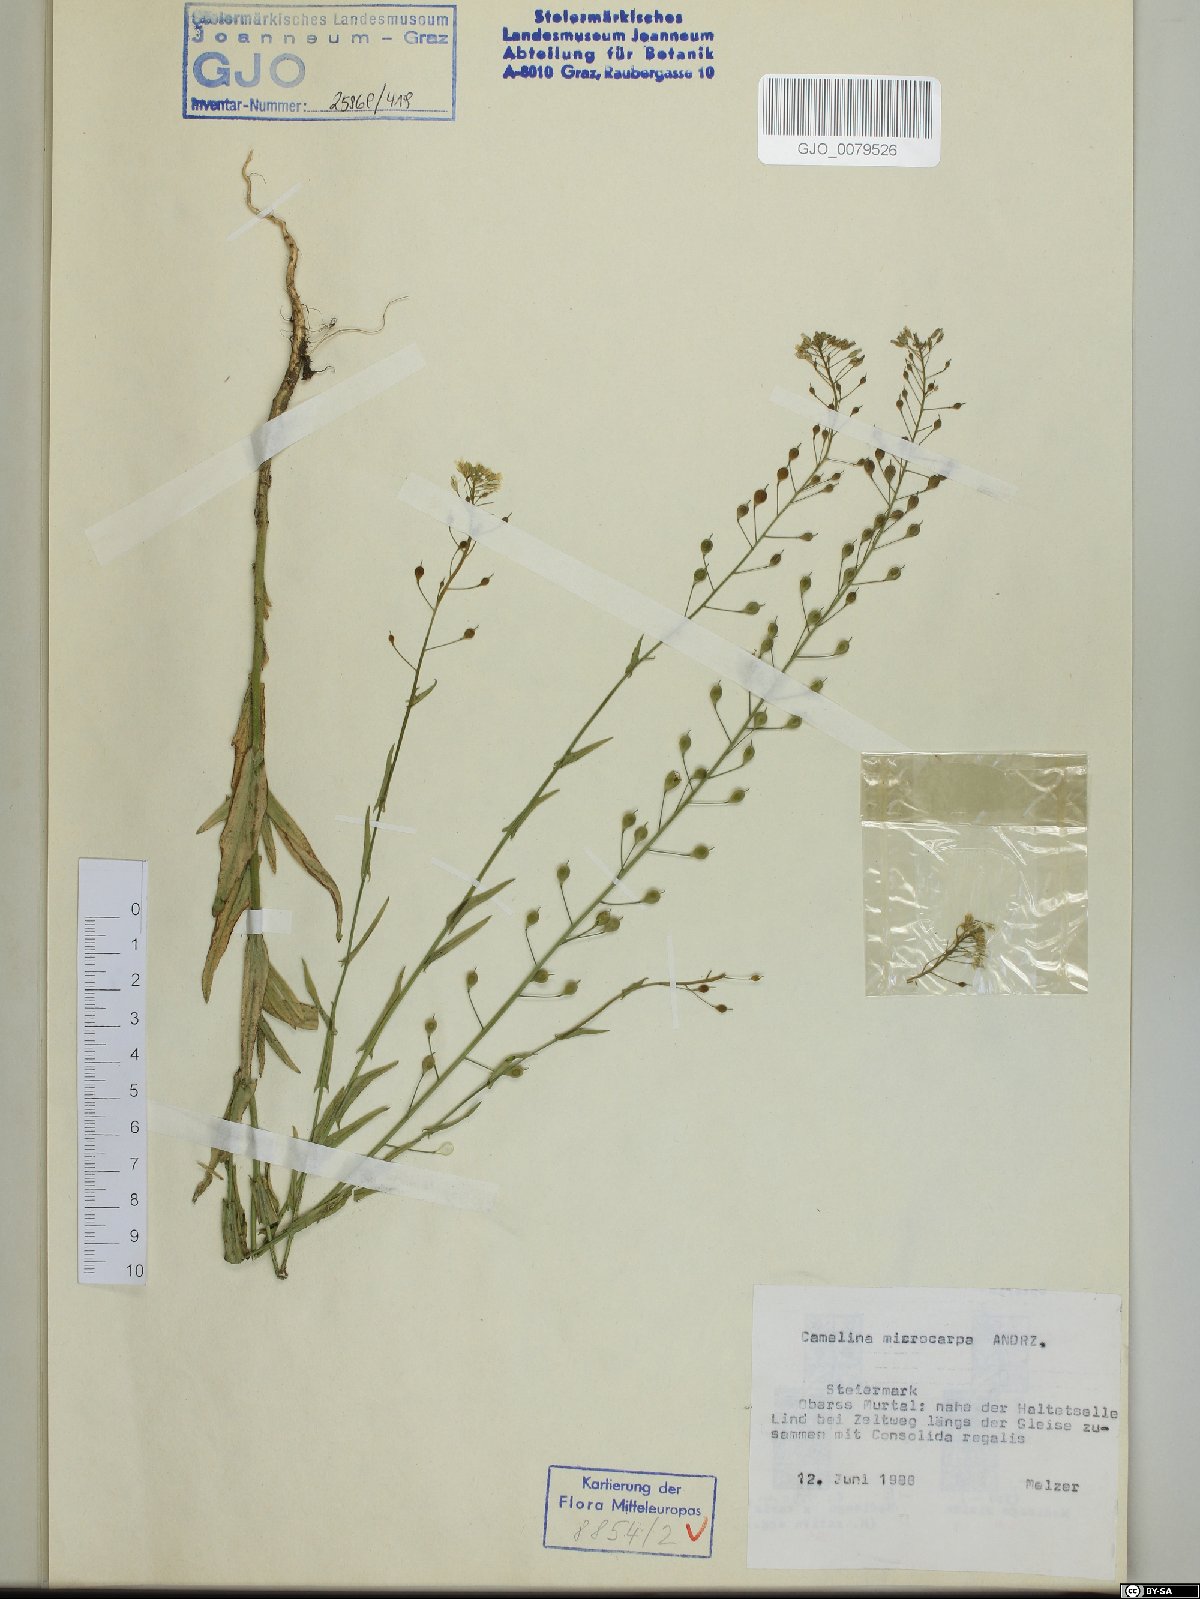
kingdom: Plantae
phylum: Tracheophyta
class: Magnoliopsida
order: Brassicales
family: Brassicaceae
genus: Camelina
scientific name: Camelina microcarpa
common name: Lesser gold-of-pleasure
